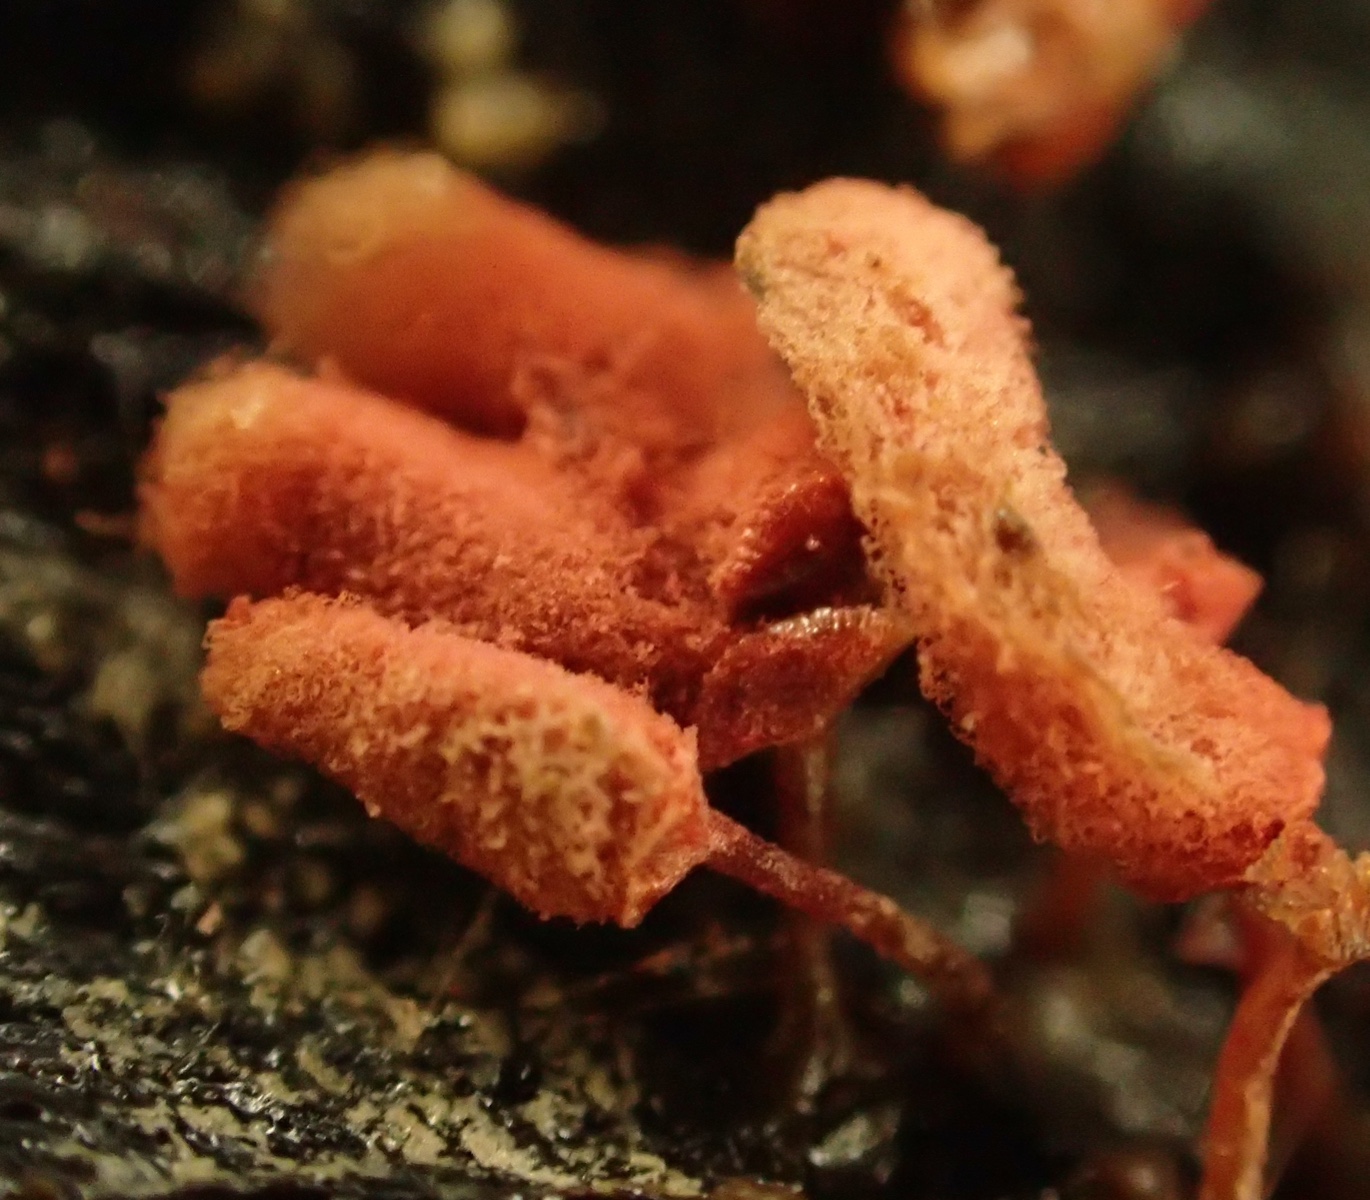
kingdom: Protozoa
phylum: Mycetozoa
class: Myxomycetes
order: Trichiales
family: Arcyriaceae
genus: Arcyria
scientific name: Arcyria denudata
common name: karminrød skålsvøb
